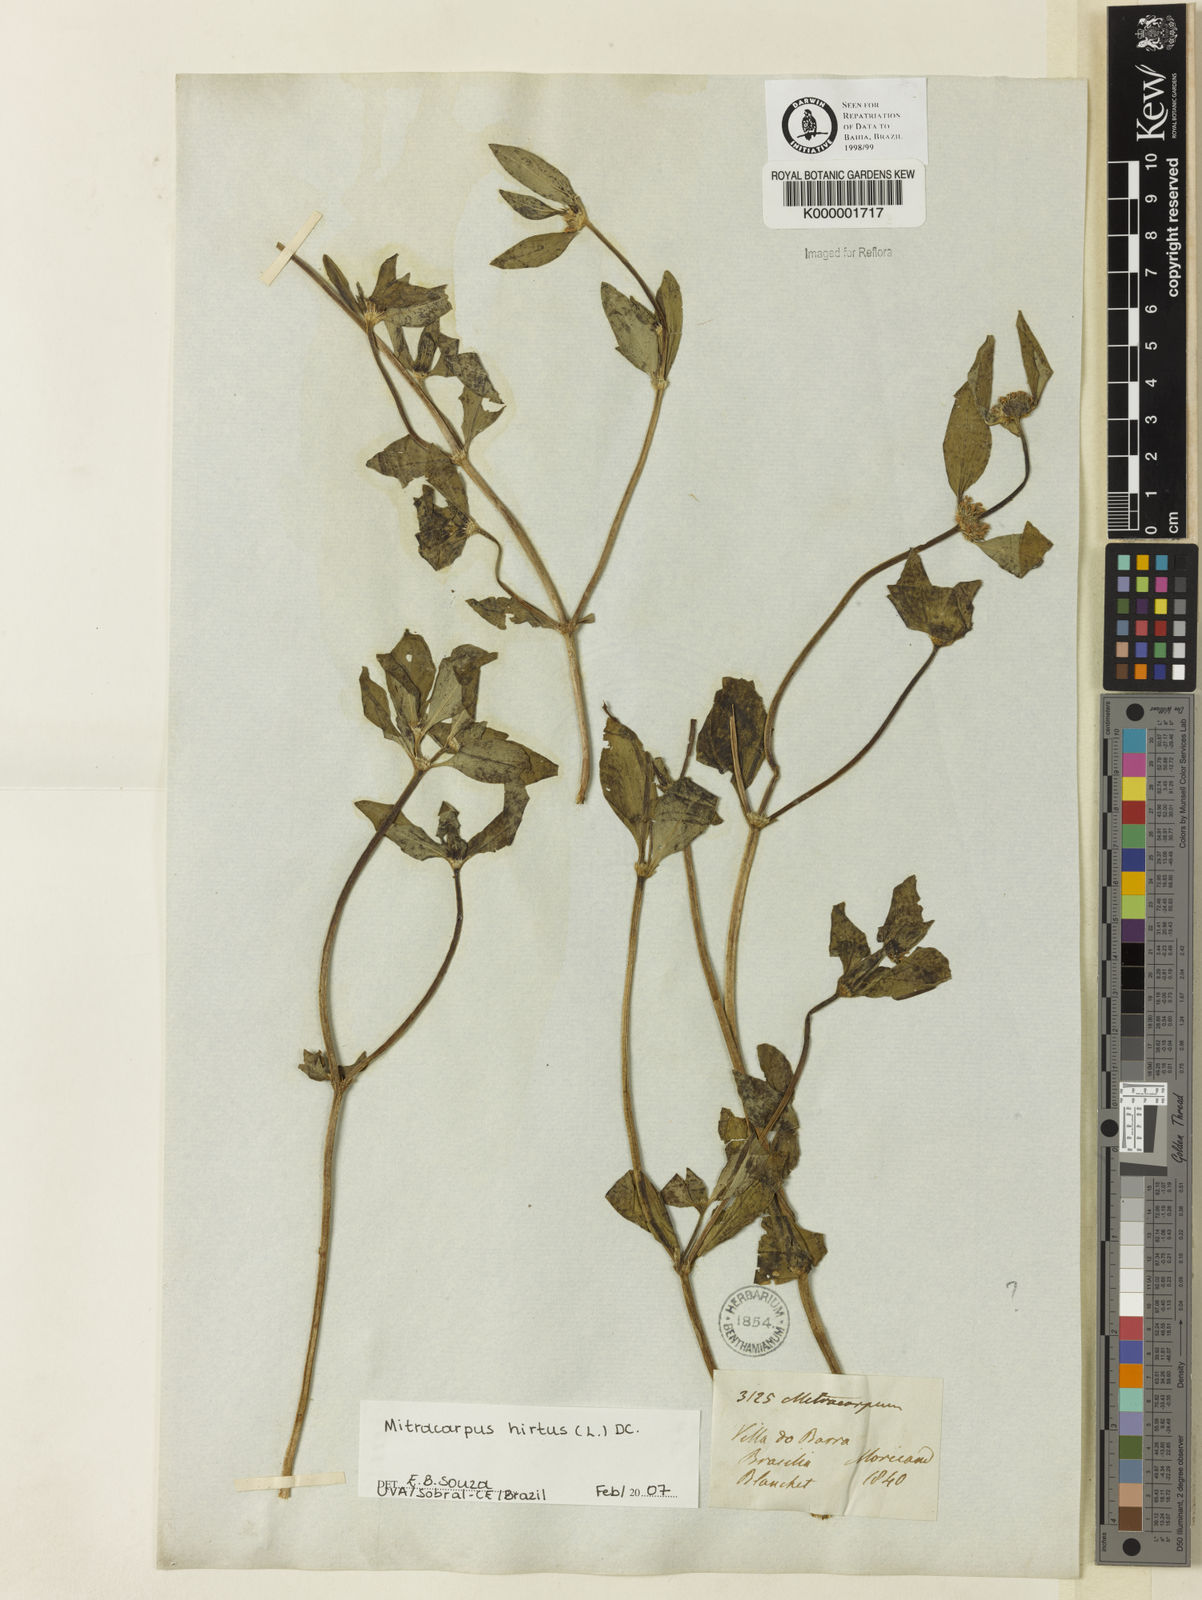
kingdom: Plantae
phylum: Tracheophyta
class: Magnoliopsida
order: Gentianales
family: Rubiaceae
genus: Mitracarpus
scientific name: Mitracarpus hirtus
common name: Tropical girdlepod
